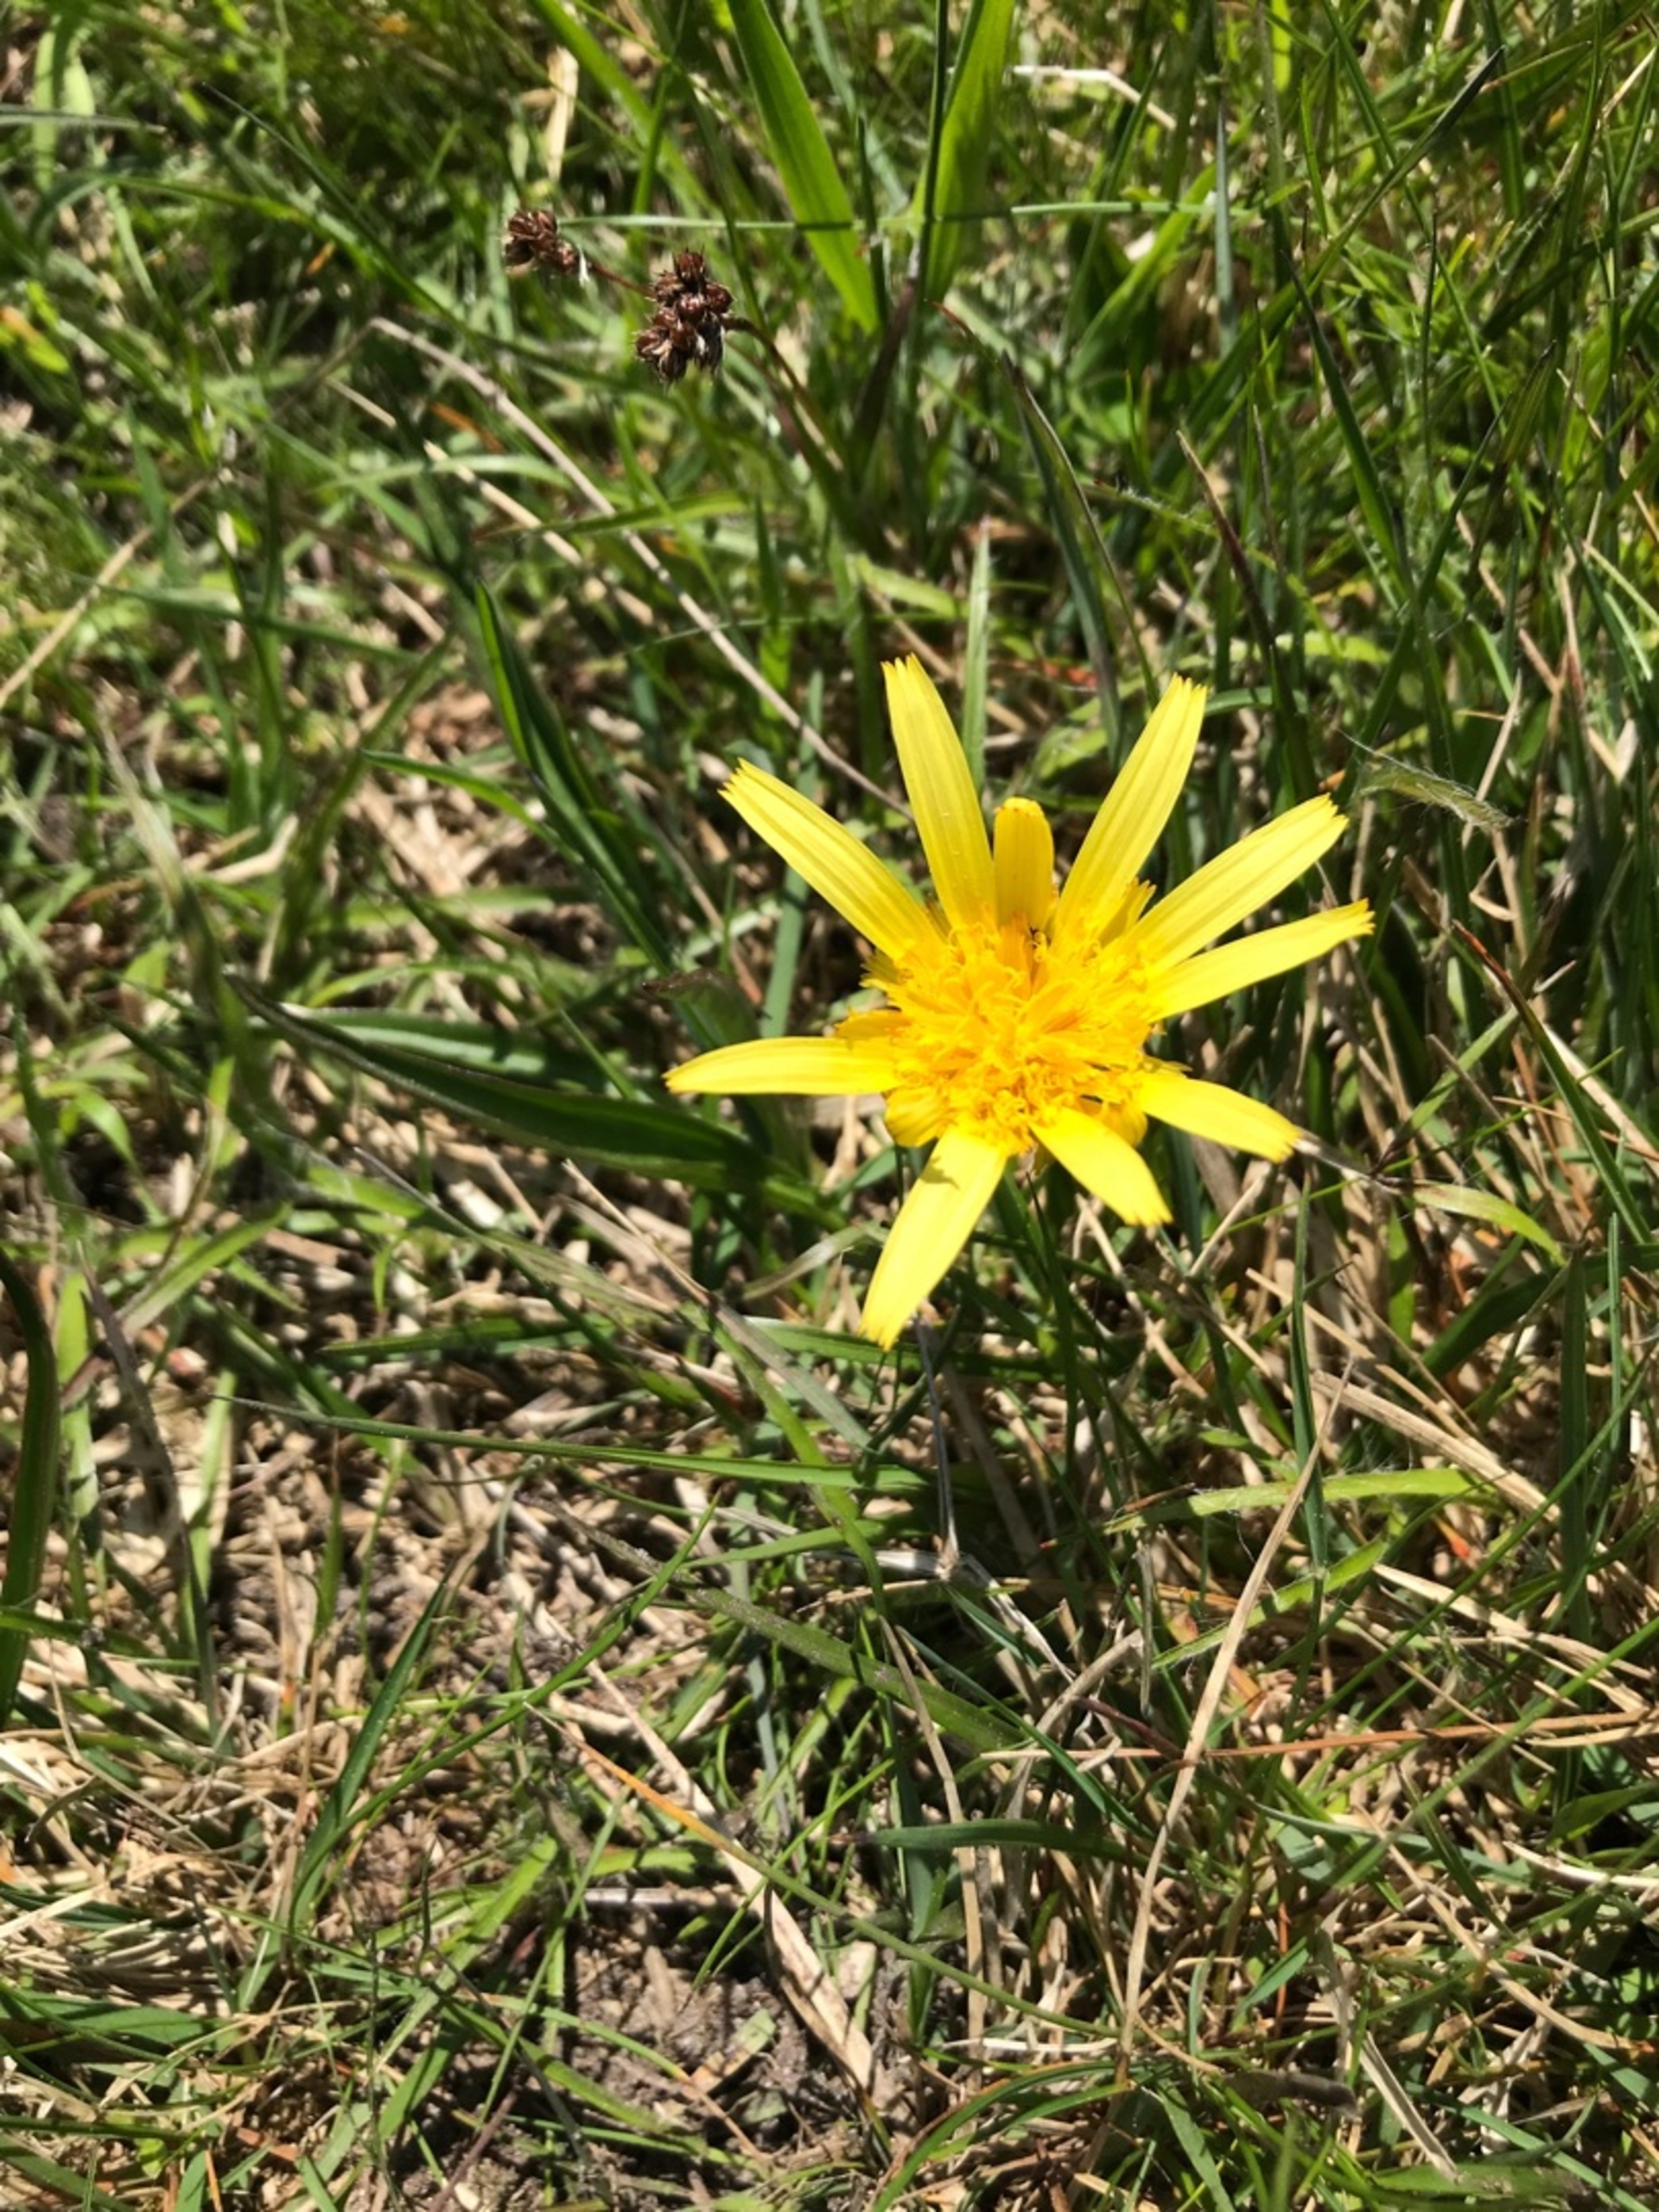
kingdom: Plantae
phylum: Tracheophyta
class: Magnoliopsida
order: Asterales
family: Asteraceae
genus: Scorzonera
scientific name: Scorzonera humilis
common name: Lav skorsoner
